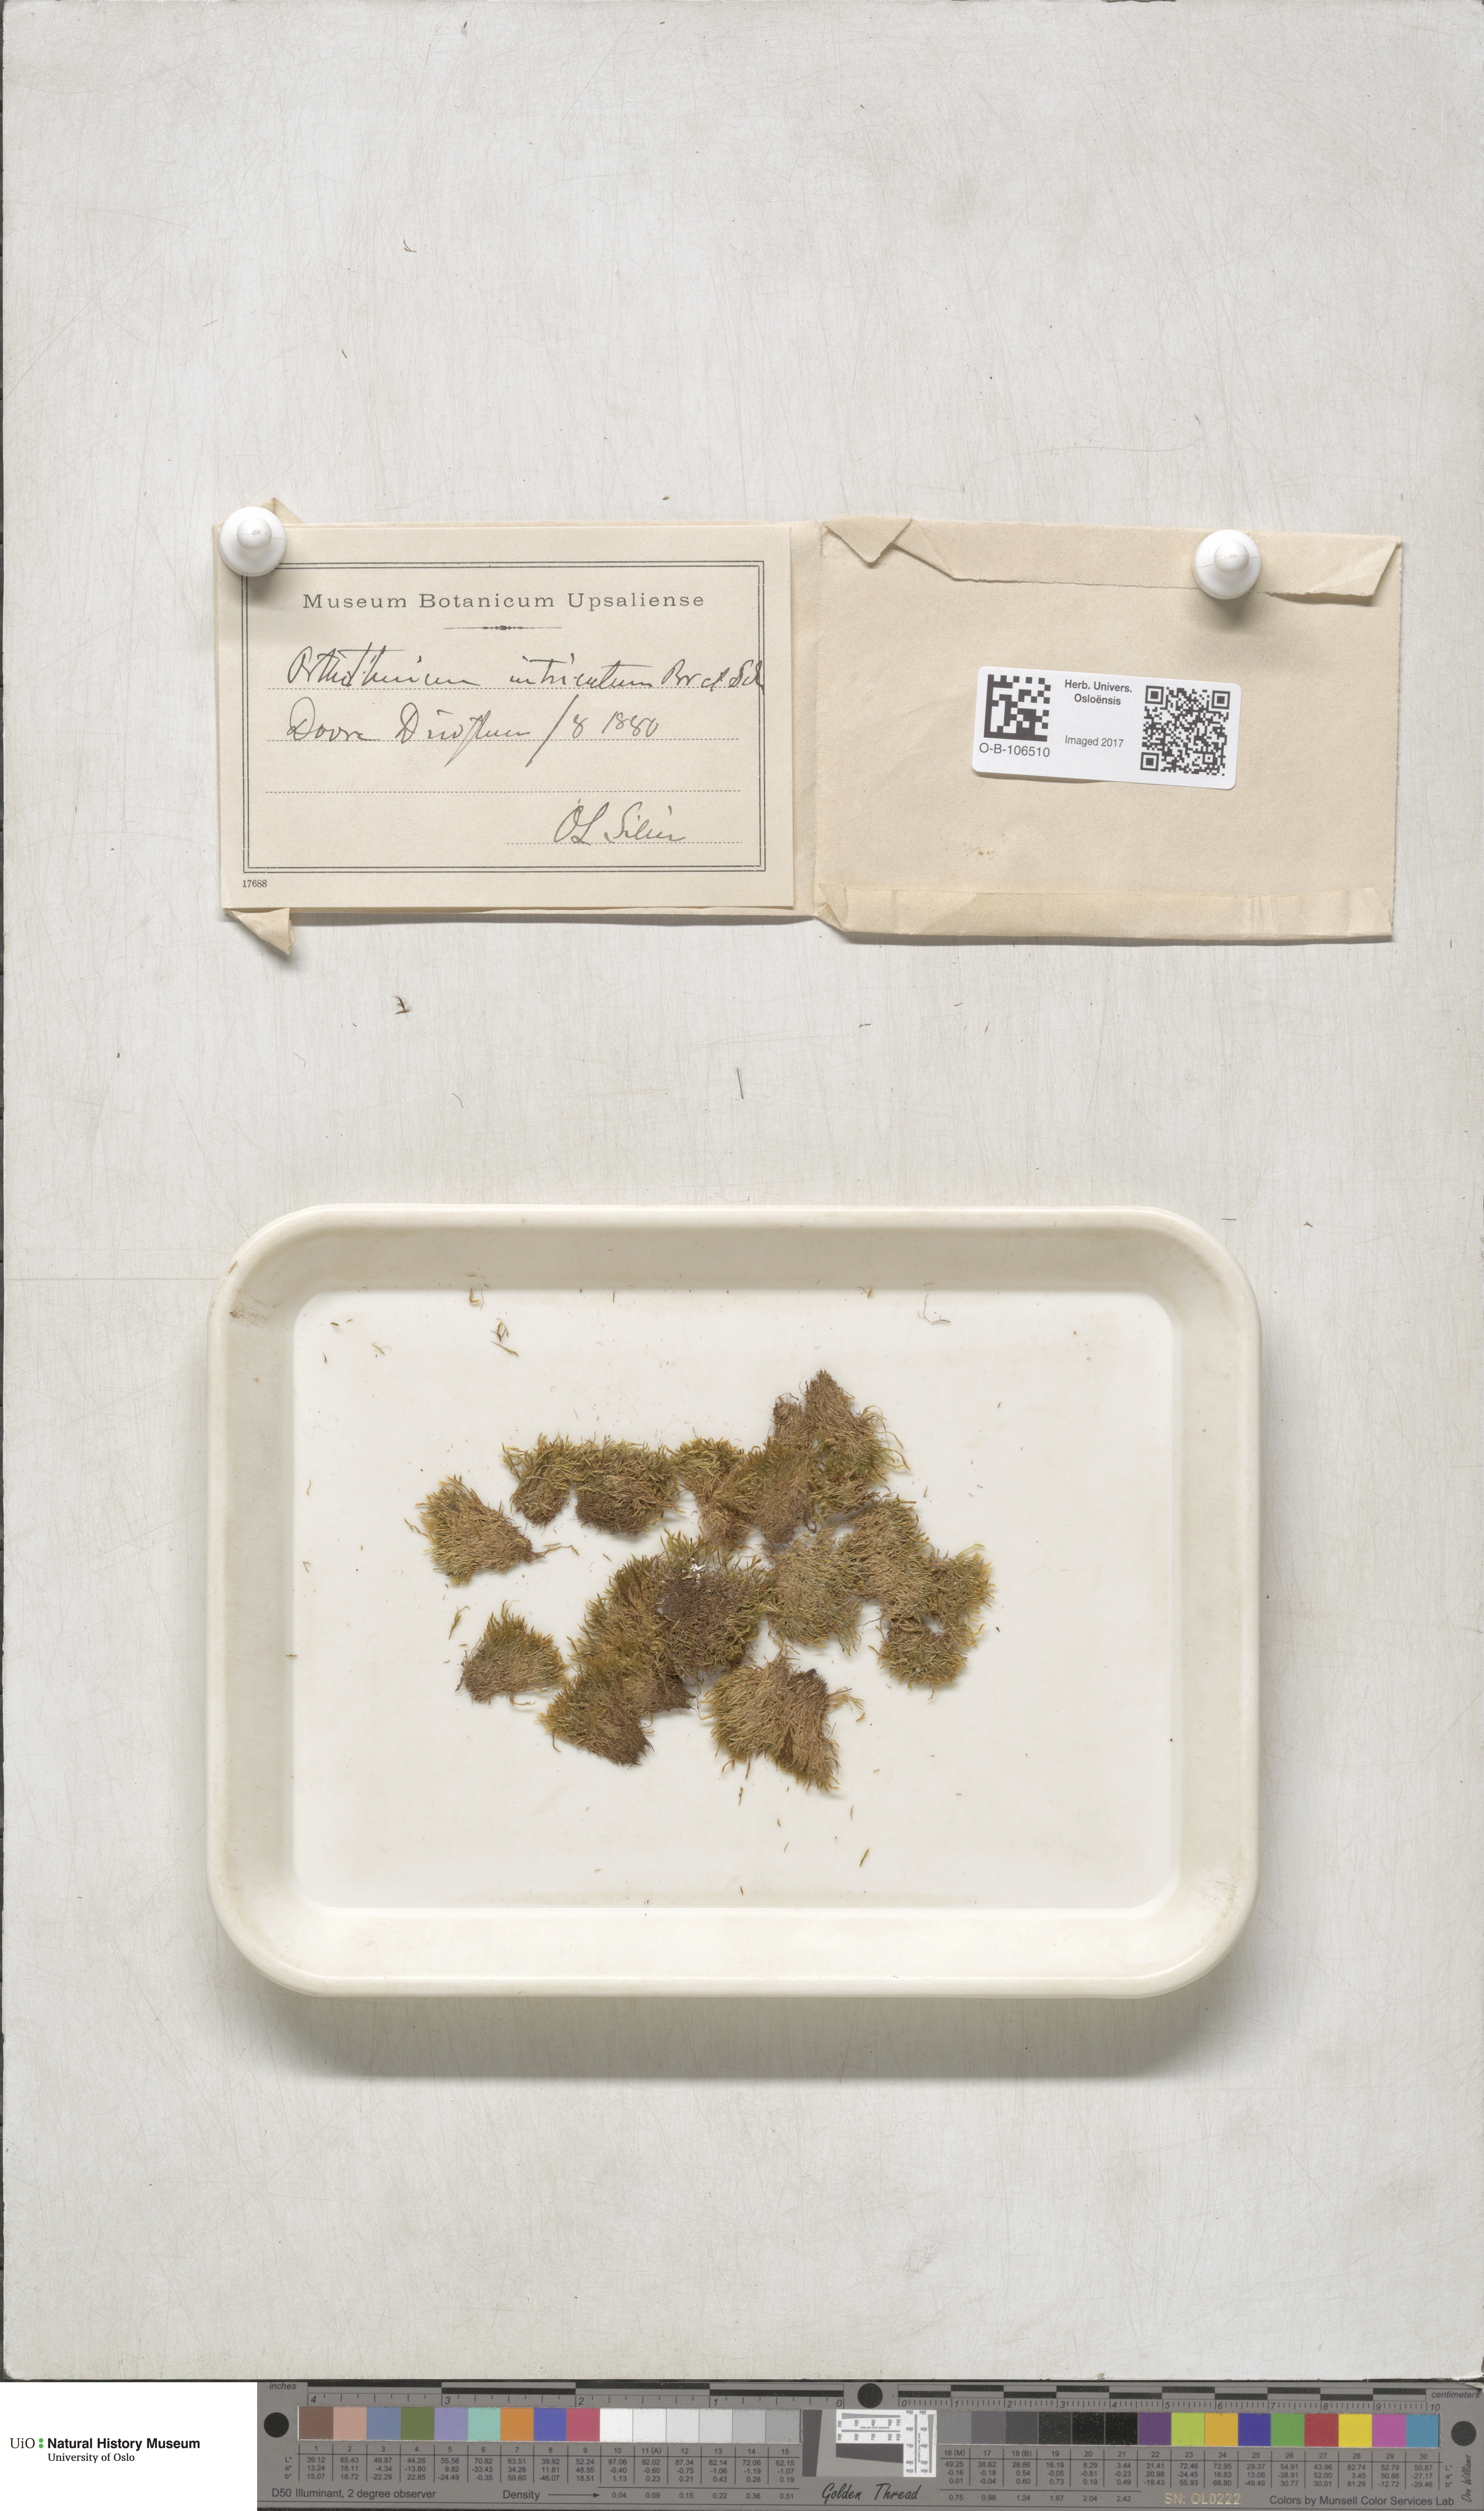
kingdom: Plantae
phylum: Bryophyta
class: Bryopsida
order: Hypnales
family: Plagiotheciaceae
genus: Orthothecium
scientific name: Orthothecium intricatum
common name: Fine-leaved erect-capsule moss
